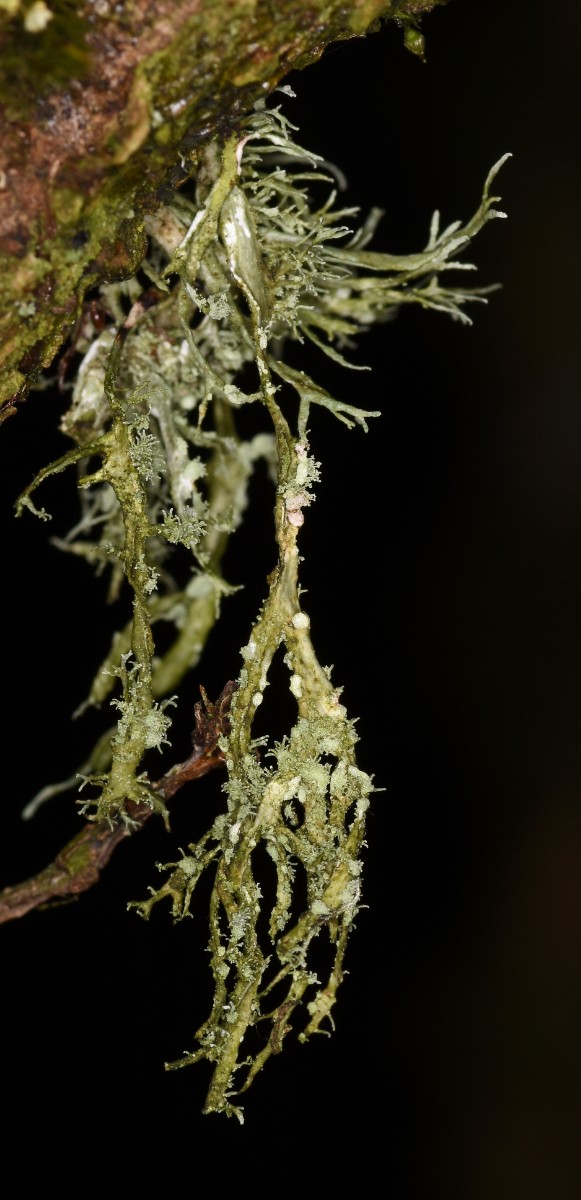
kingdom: Fungi
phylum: Ascomycota
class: Lecanoromycetes
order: Lecanorales
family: Ramalinaceae
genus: Ramalina
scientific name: Ramalina farinacea
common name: melet grenlav
